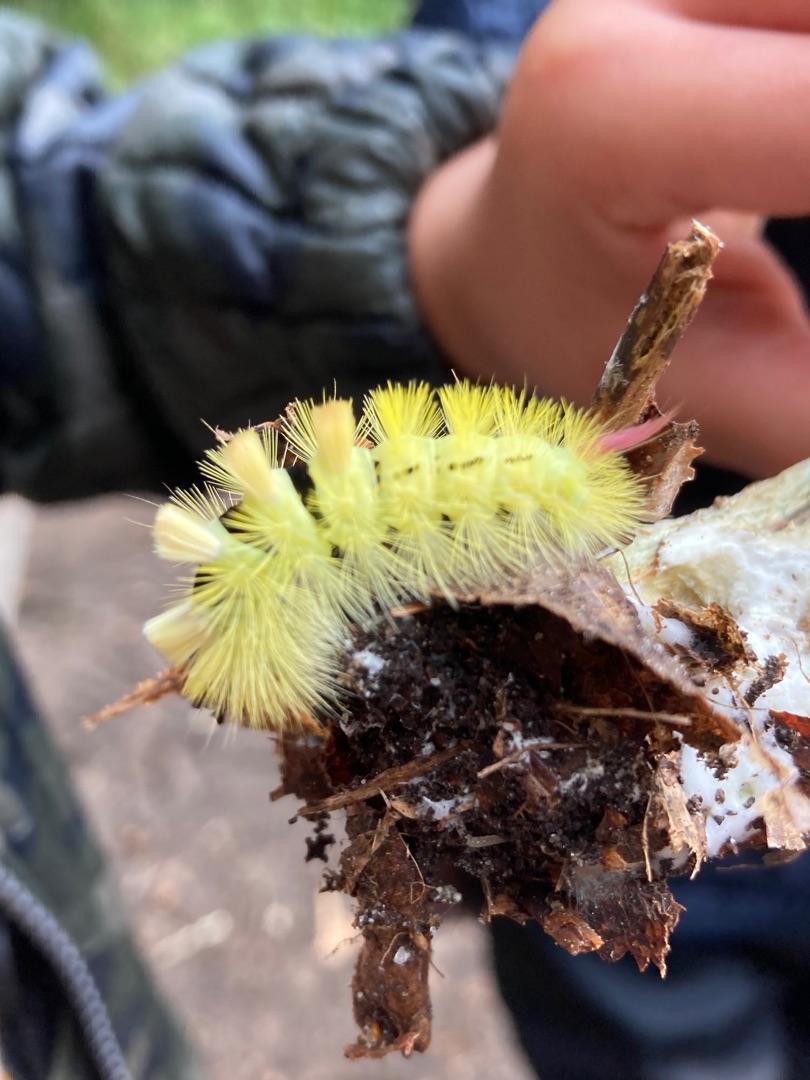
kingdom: Animalia
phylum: Arthropoda
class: Insecta
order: Lepidoptera
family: Erebidae
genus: Calliteara
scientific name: Calliteara pudibunda
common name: Bøgenonne
